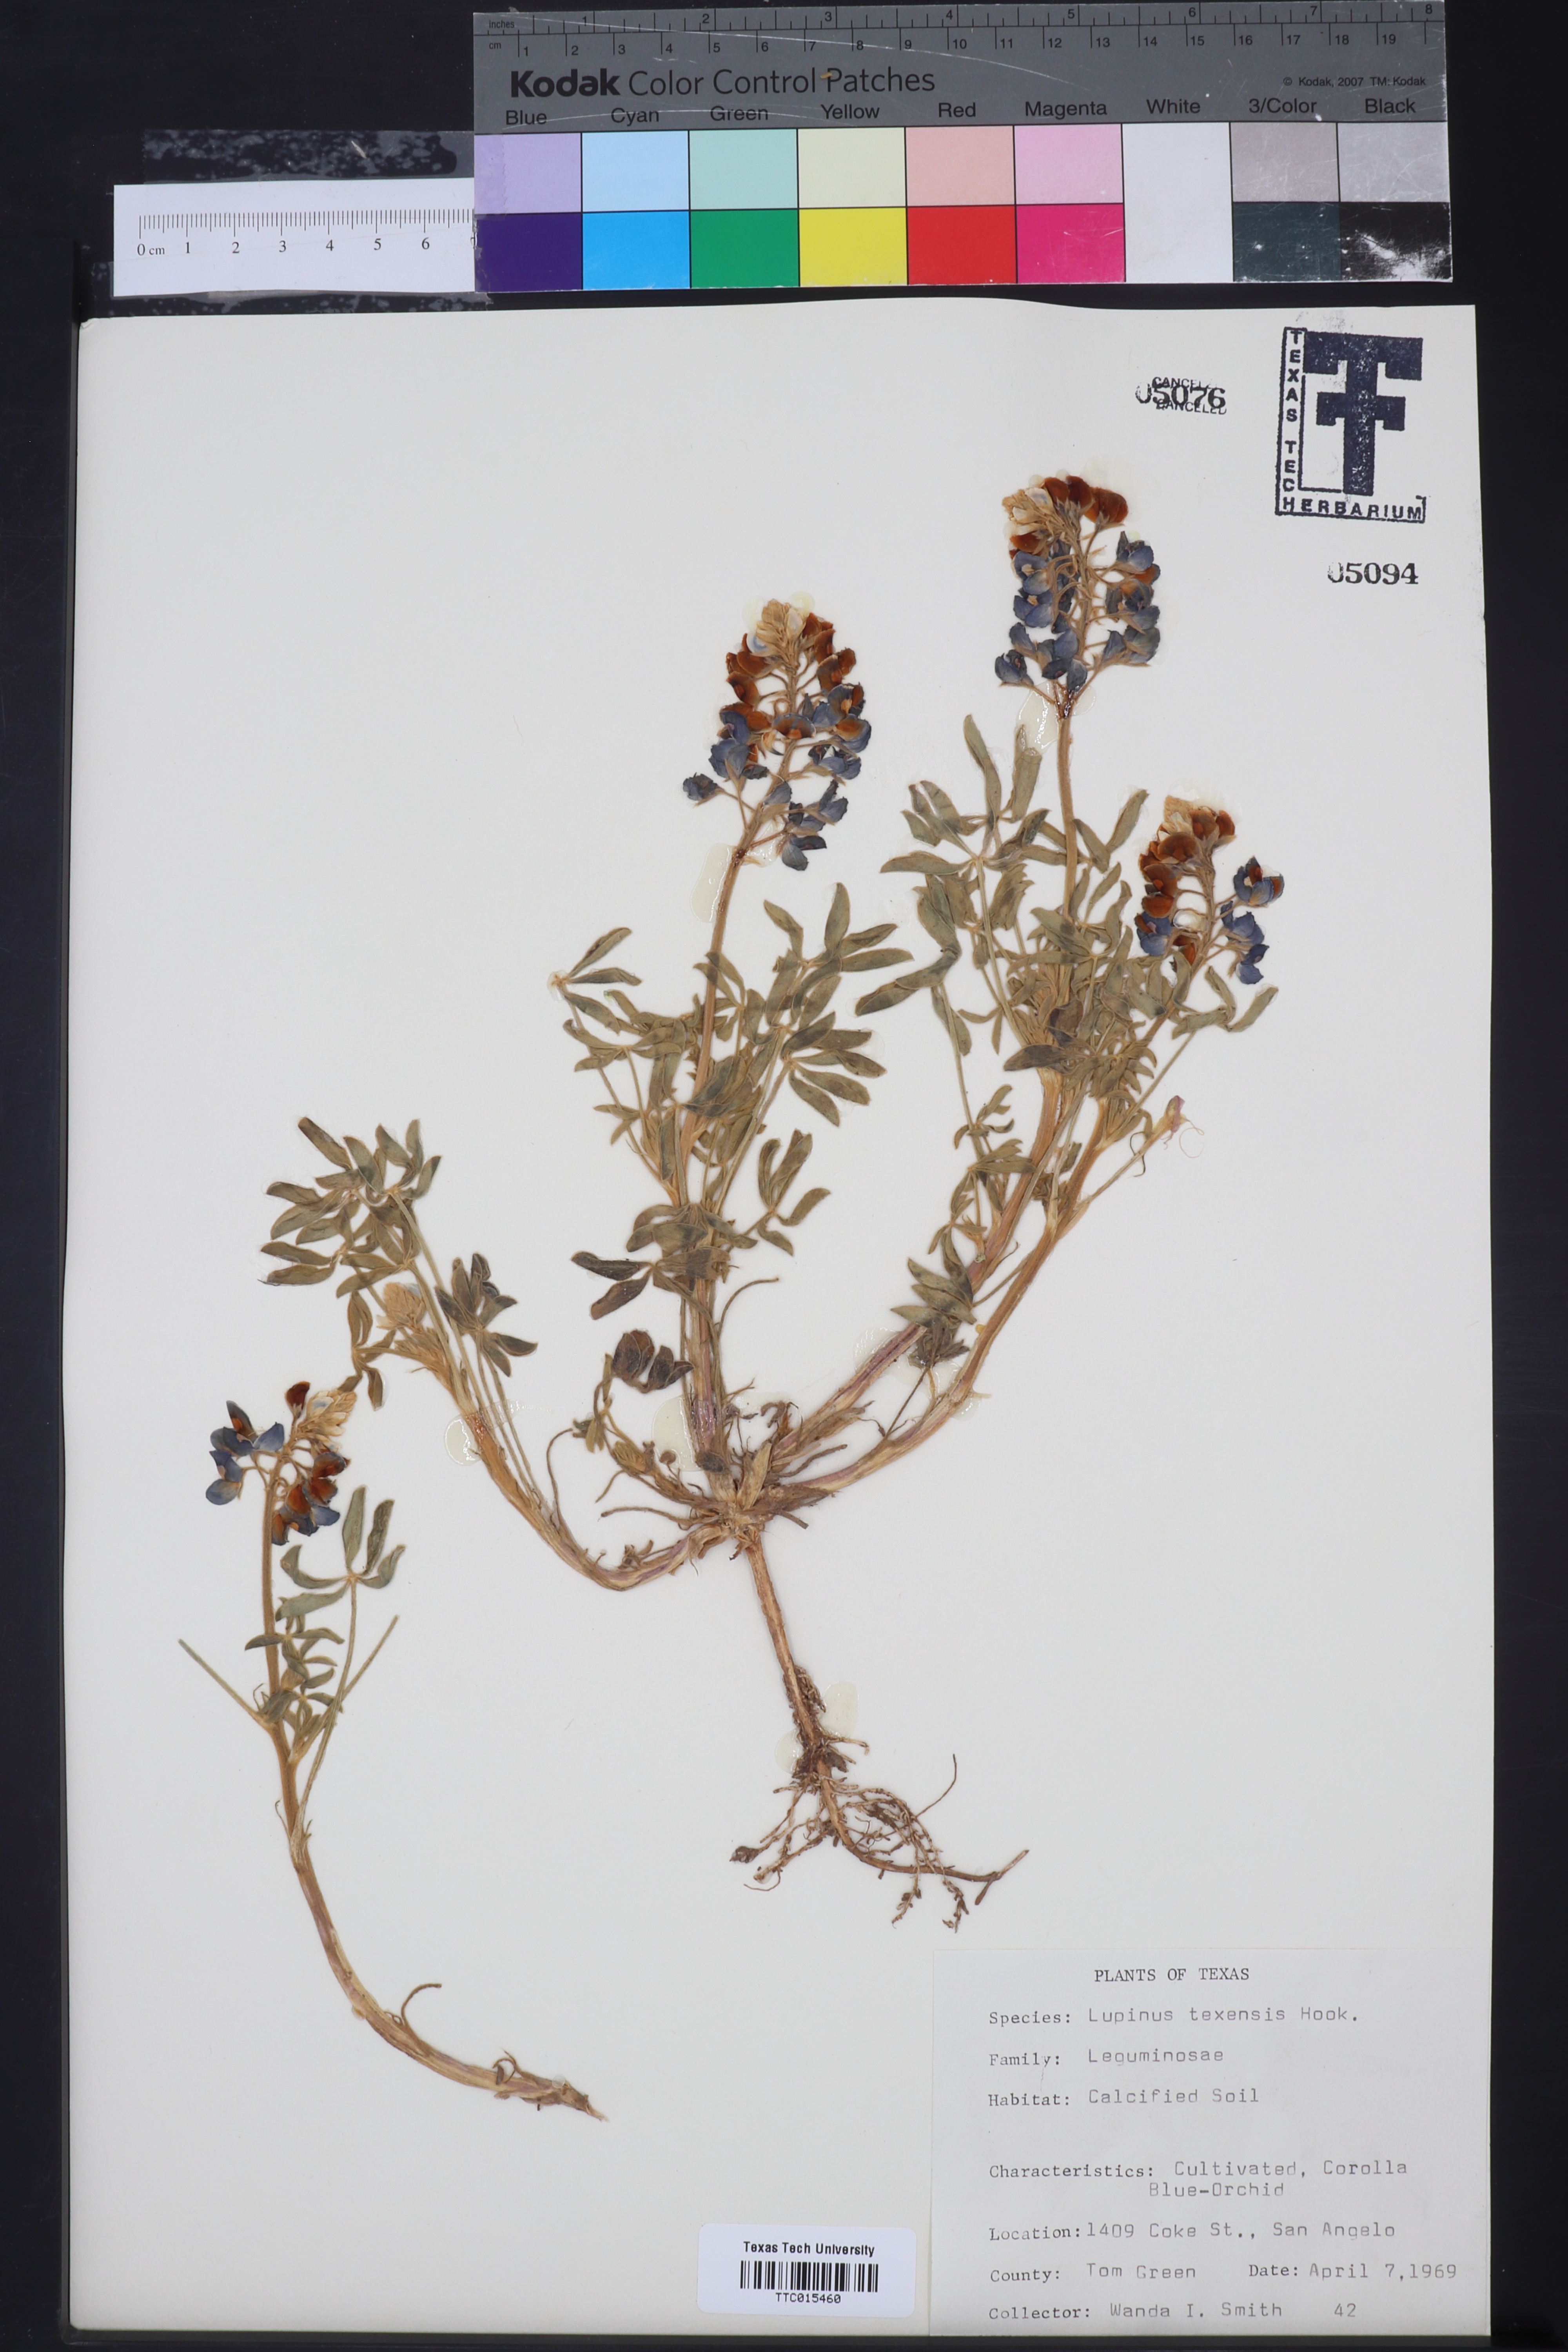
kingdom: Plantae
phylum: Tracheophyta
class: Magnoliopsida
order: Fabales
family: Fabaceae
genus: Lupinus
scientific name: Lupinus texensis
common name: Texas bluebonnet
